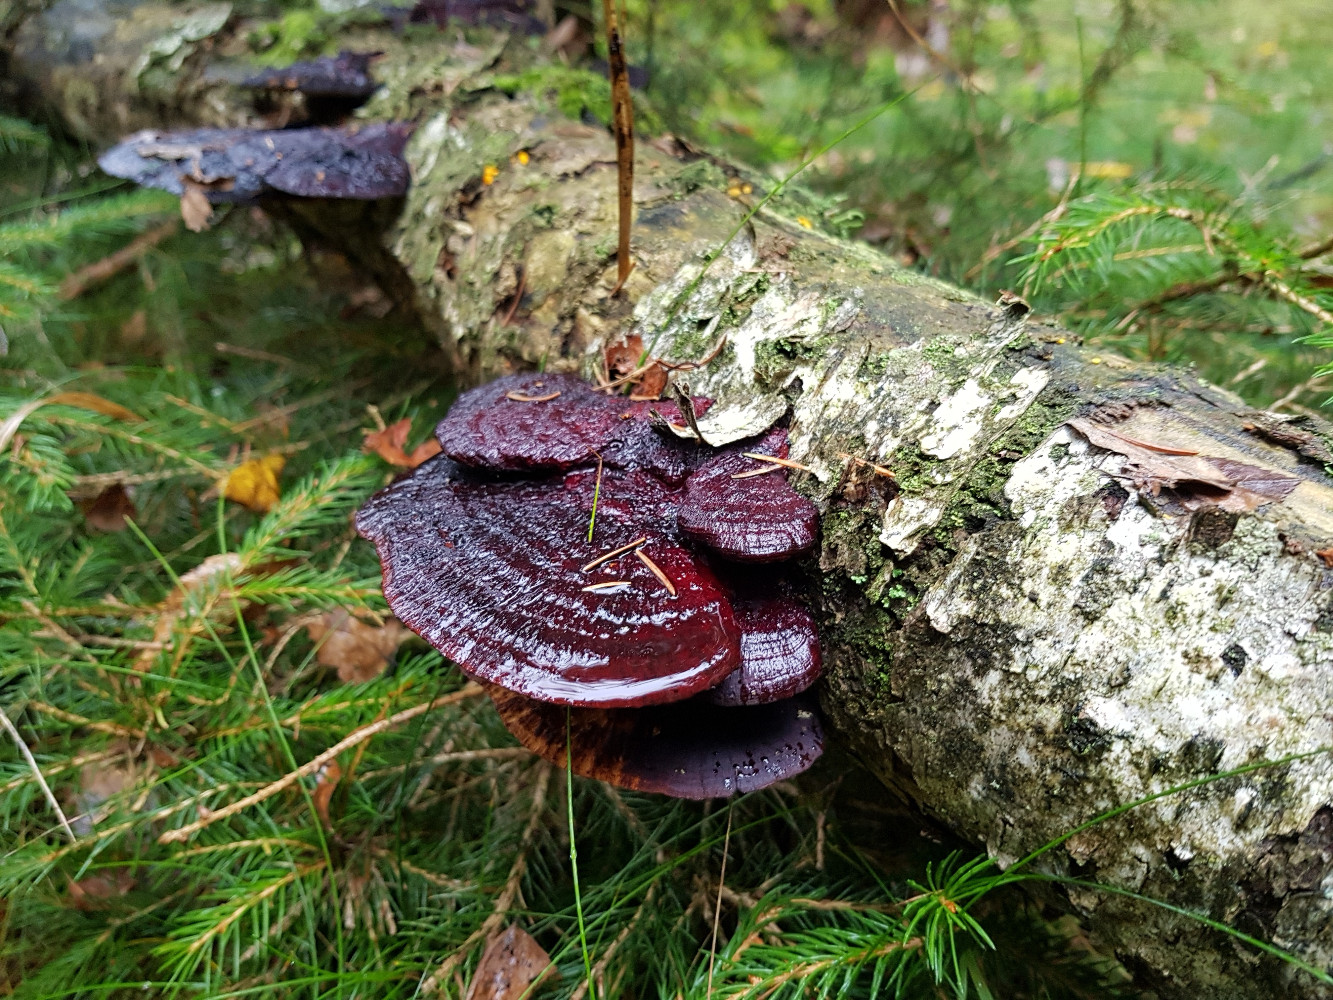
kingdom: Fungi
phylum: Basidiomycota
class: Agaricomycetes
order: Polyporales
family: Polyporaceae
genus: Daedaleopsis
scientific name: Daedaleopsis confragosa
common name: rødmende læderporesvamp
